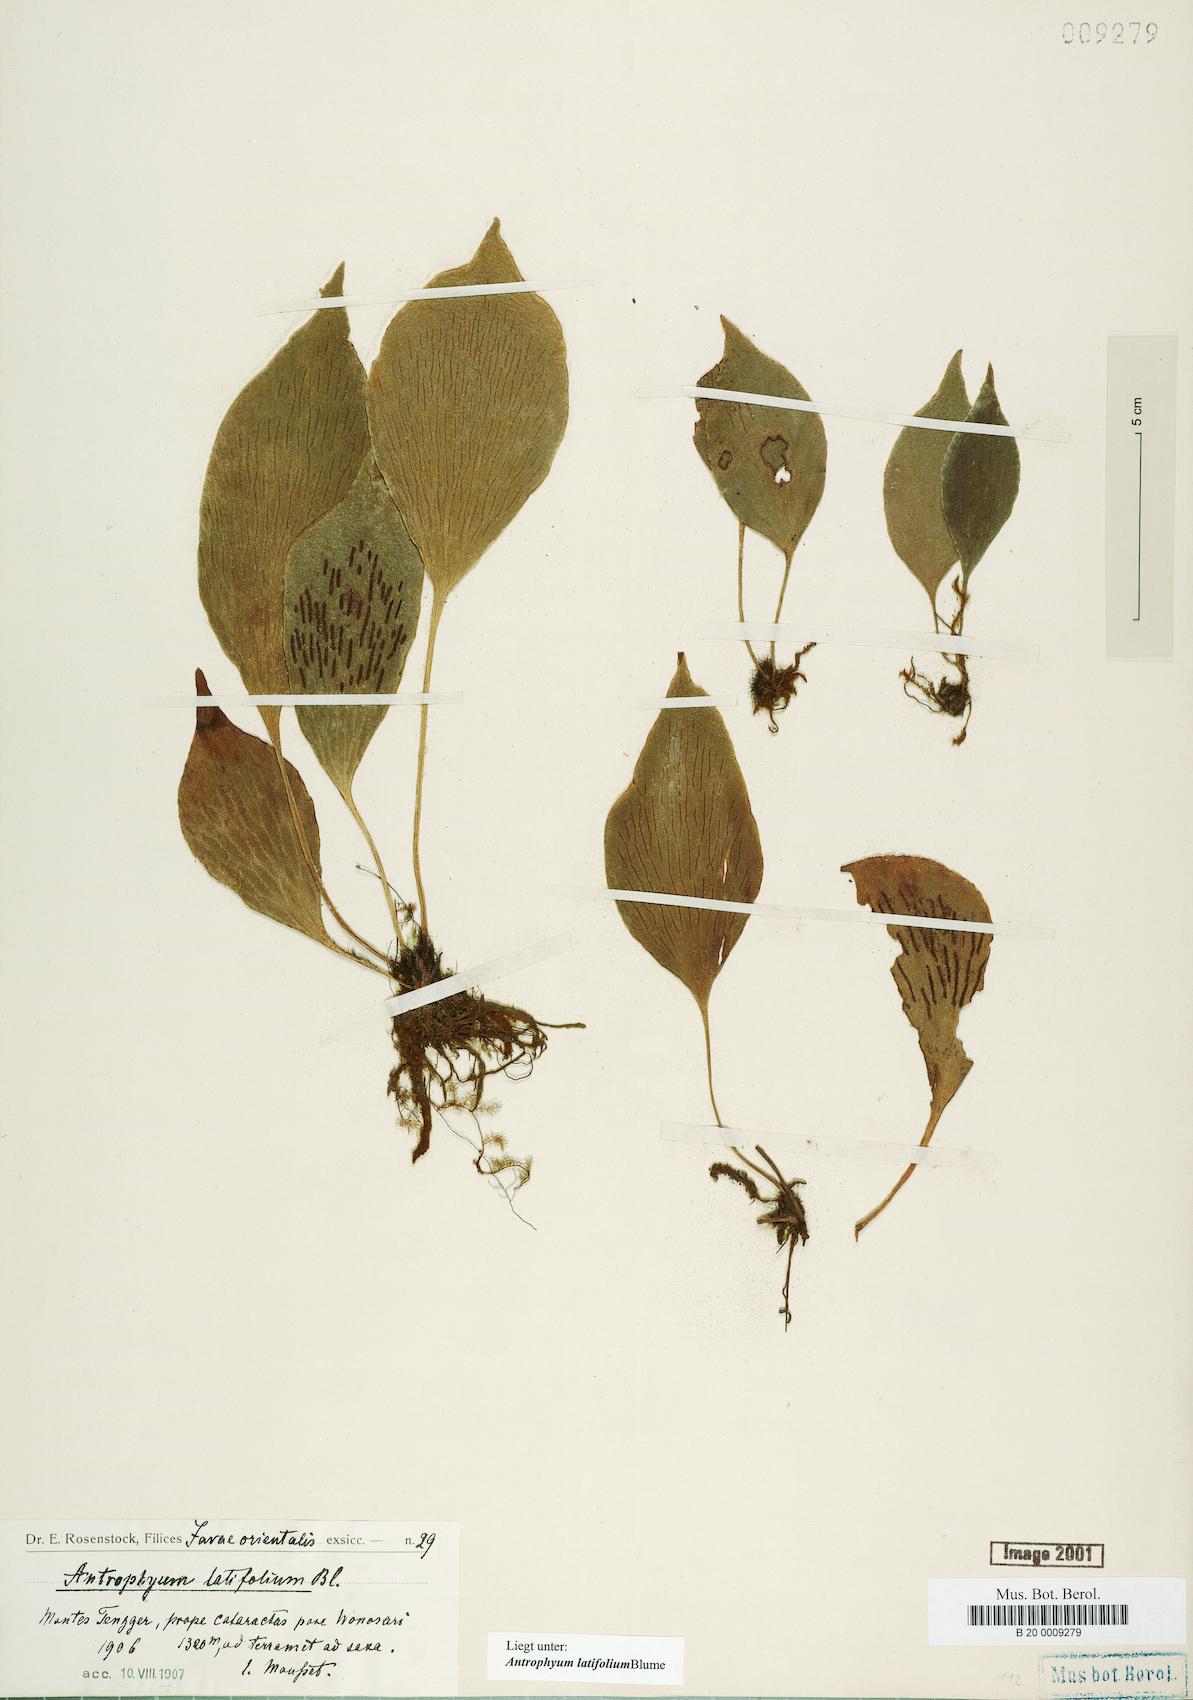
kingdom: Plantae
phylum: Tracheophyta
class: Polypodiopsida
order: Polypodiales
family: Pteridaceae
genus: Antrophyum
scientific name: Antrophyum latifolium
